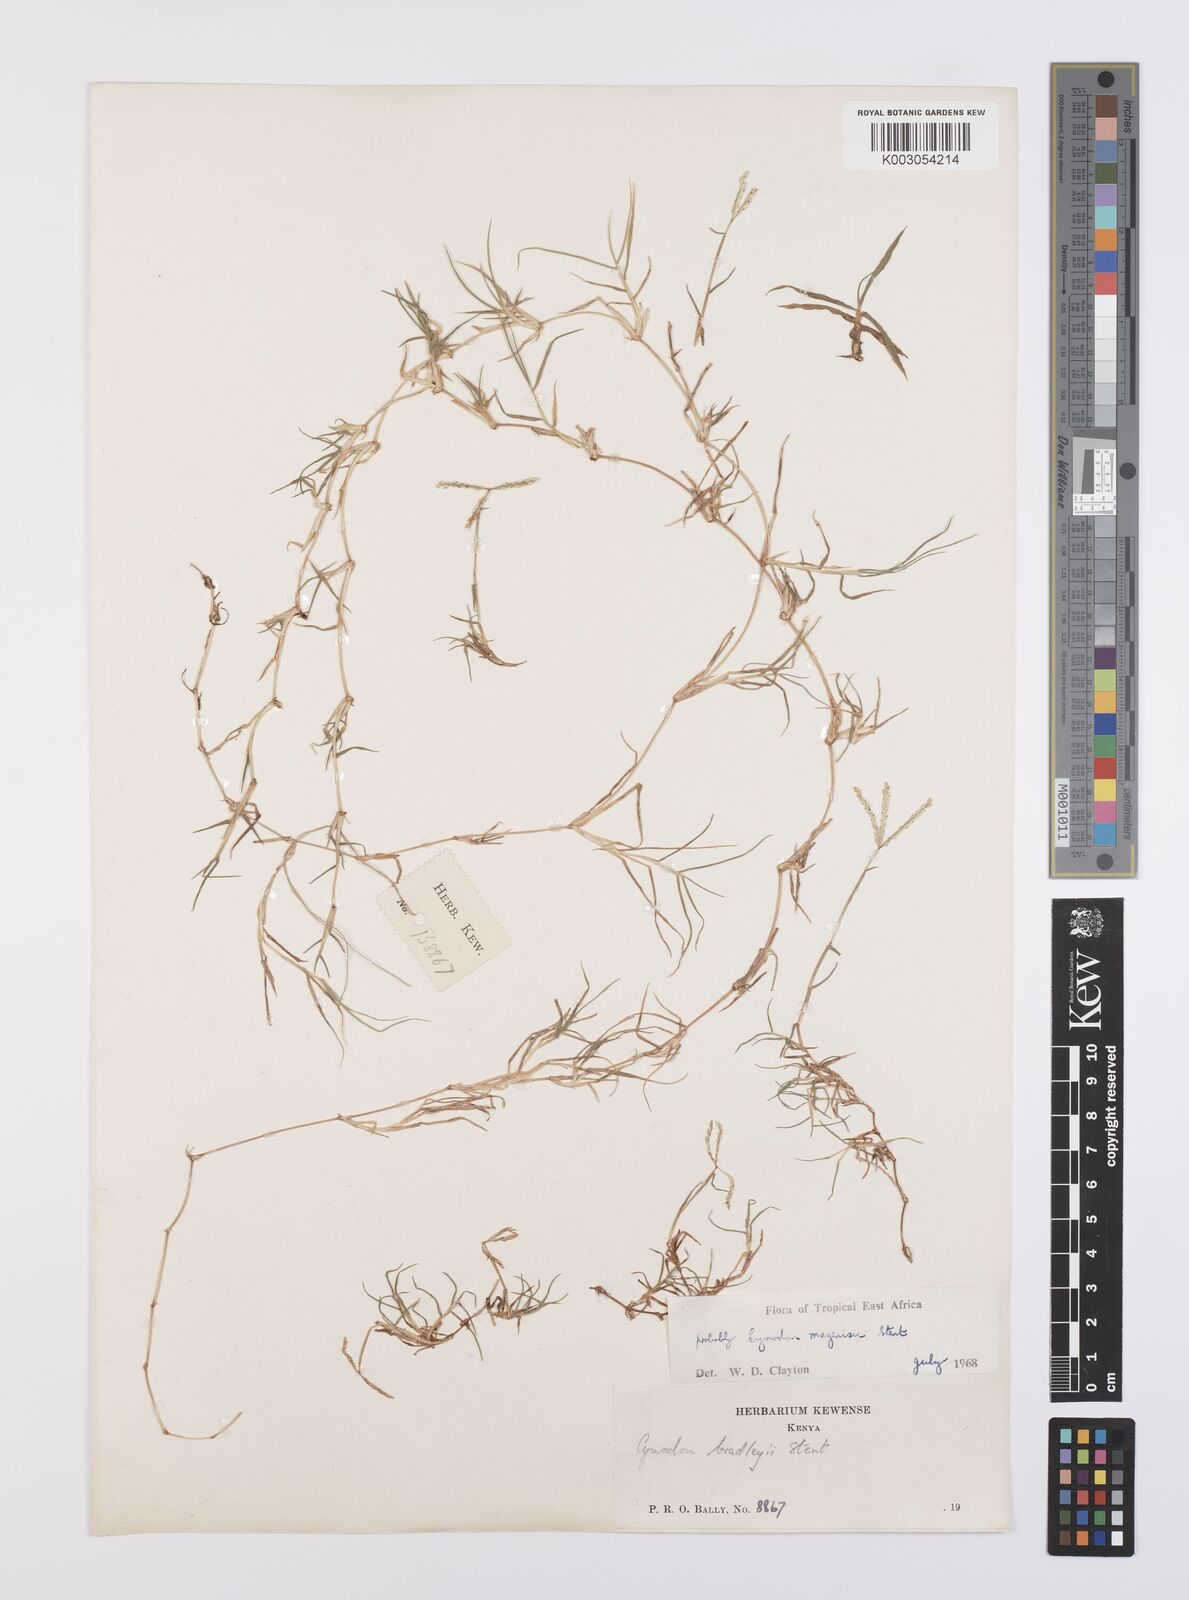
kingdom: Plantae
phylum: Tracheophyta
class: Liliopsida
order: Poales
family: Poaceae
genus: Cynodon
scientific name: Cynodon magennisii
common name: Bermudagrass
